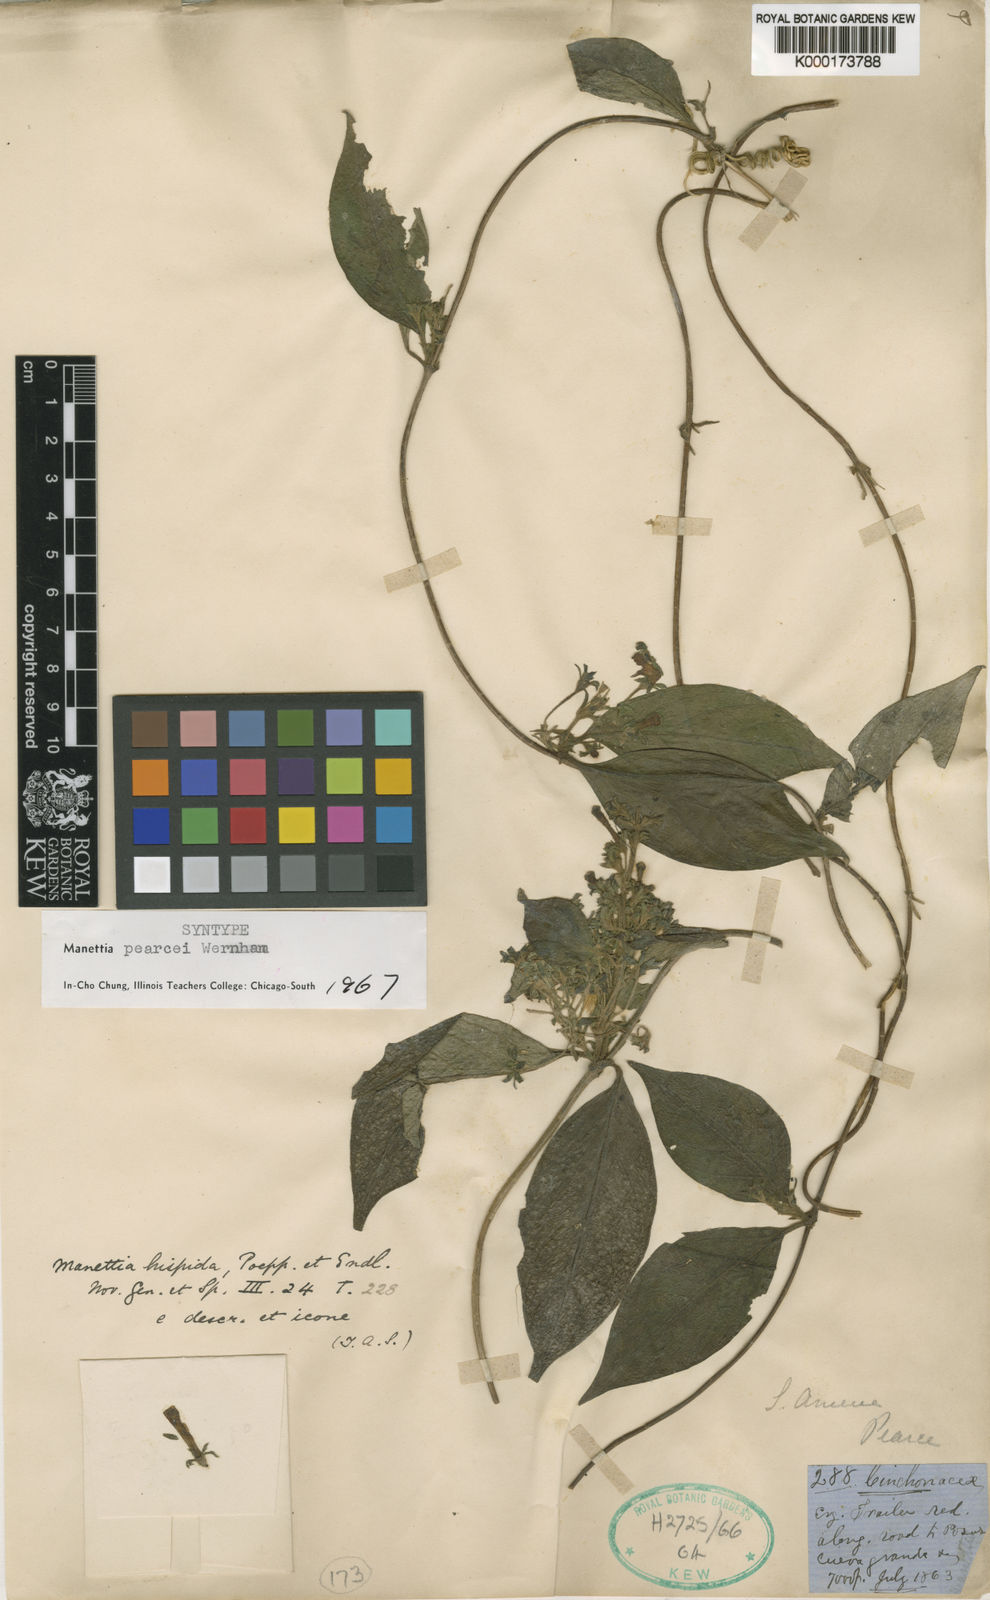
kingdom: Plantae
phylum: Tracheophyta
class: Magnoliopsida
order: Gentianales
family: Rubiaceae
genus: Manettia
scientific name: Manettia pearcei
